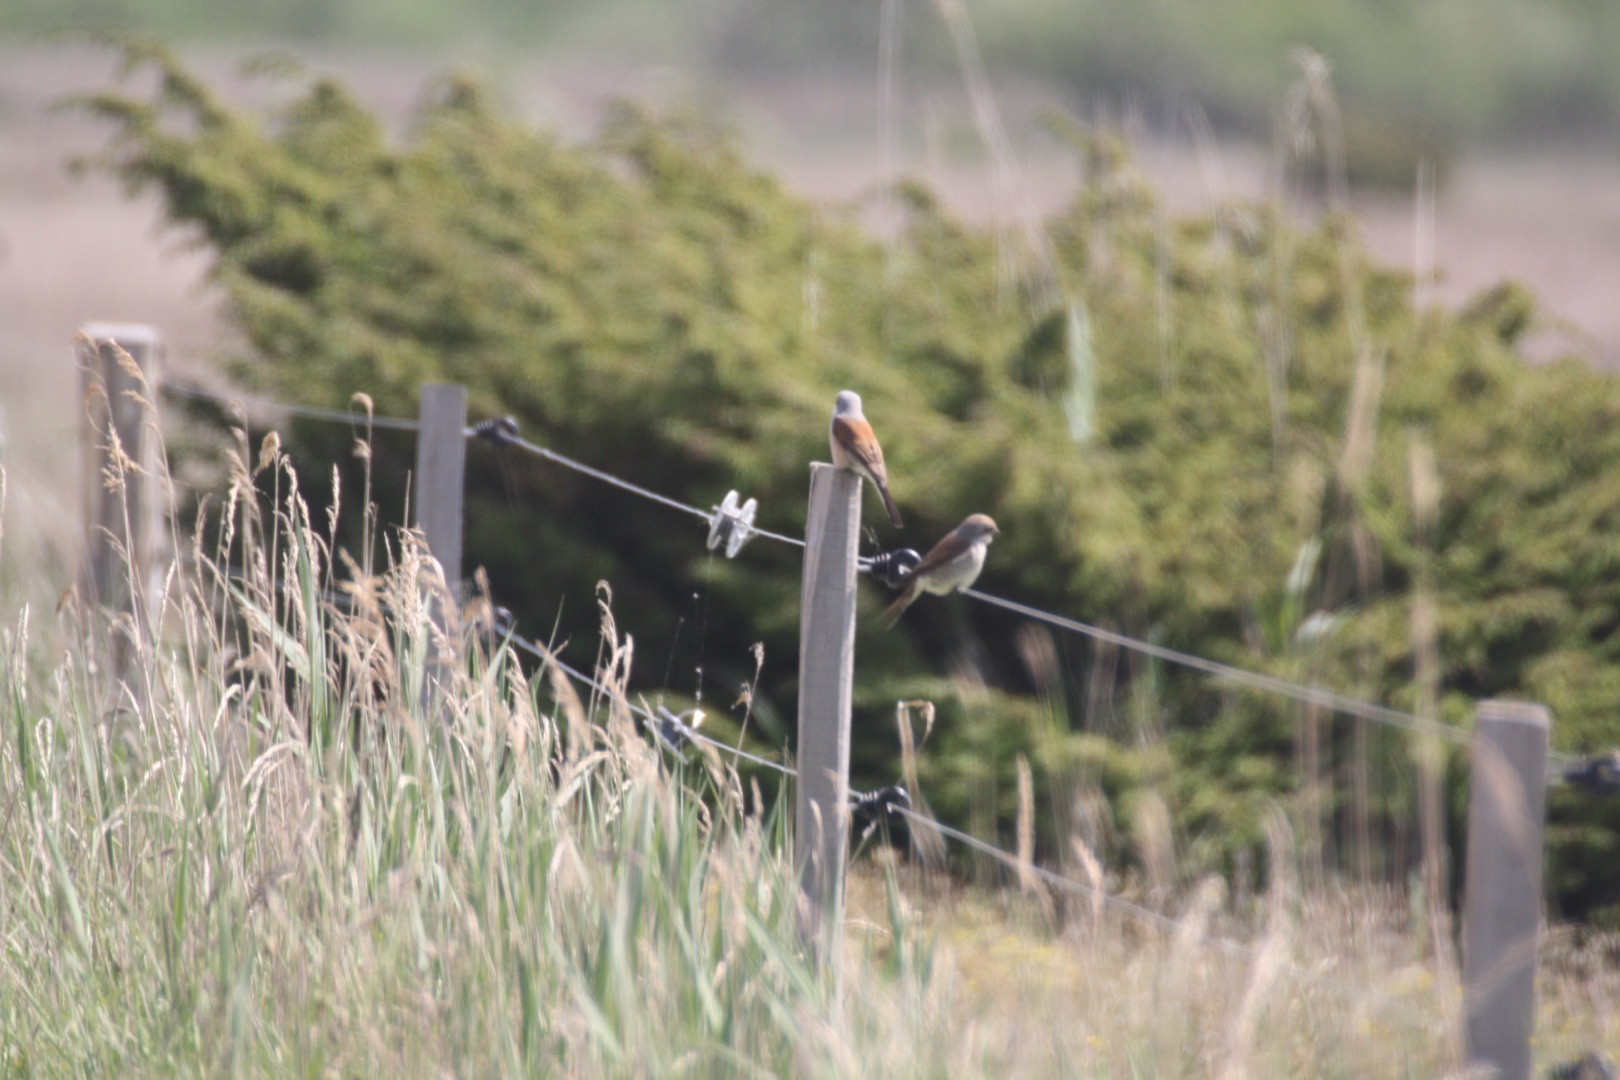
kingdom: Animalia
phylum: Chordata
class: Aves
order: Passeriformes
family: Laniidae
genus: Lanius
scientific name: Lanius collurio
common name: Rødrygget tornskade
